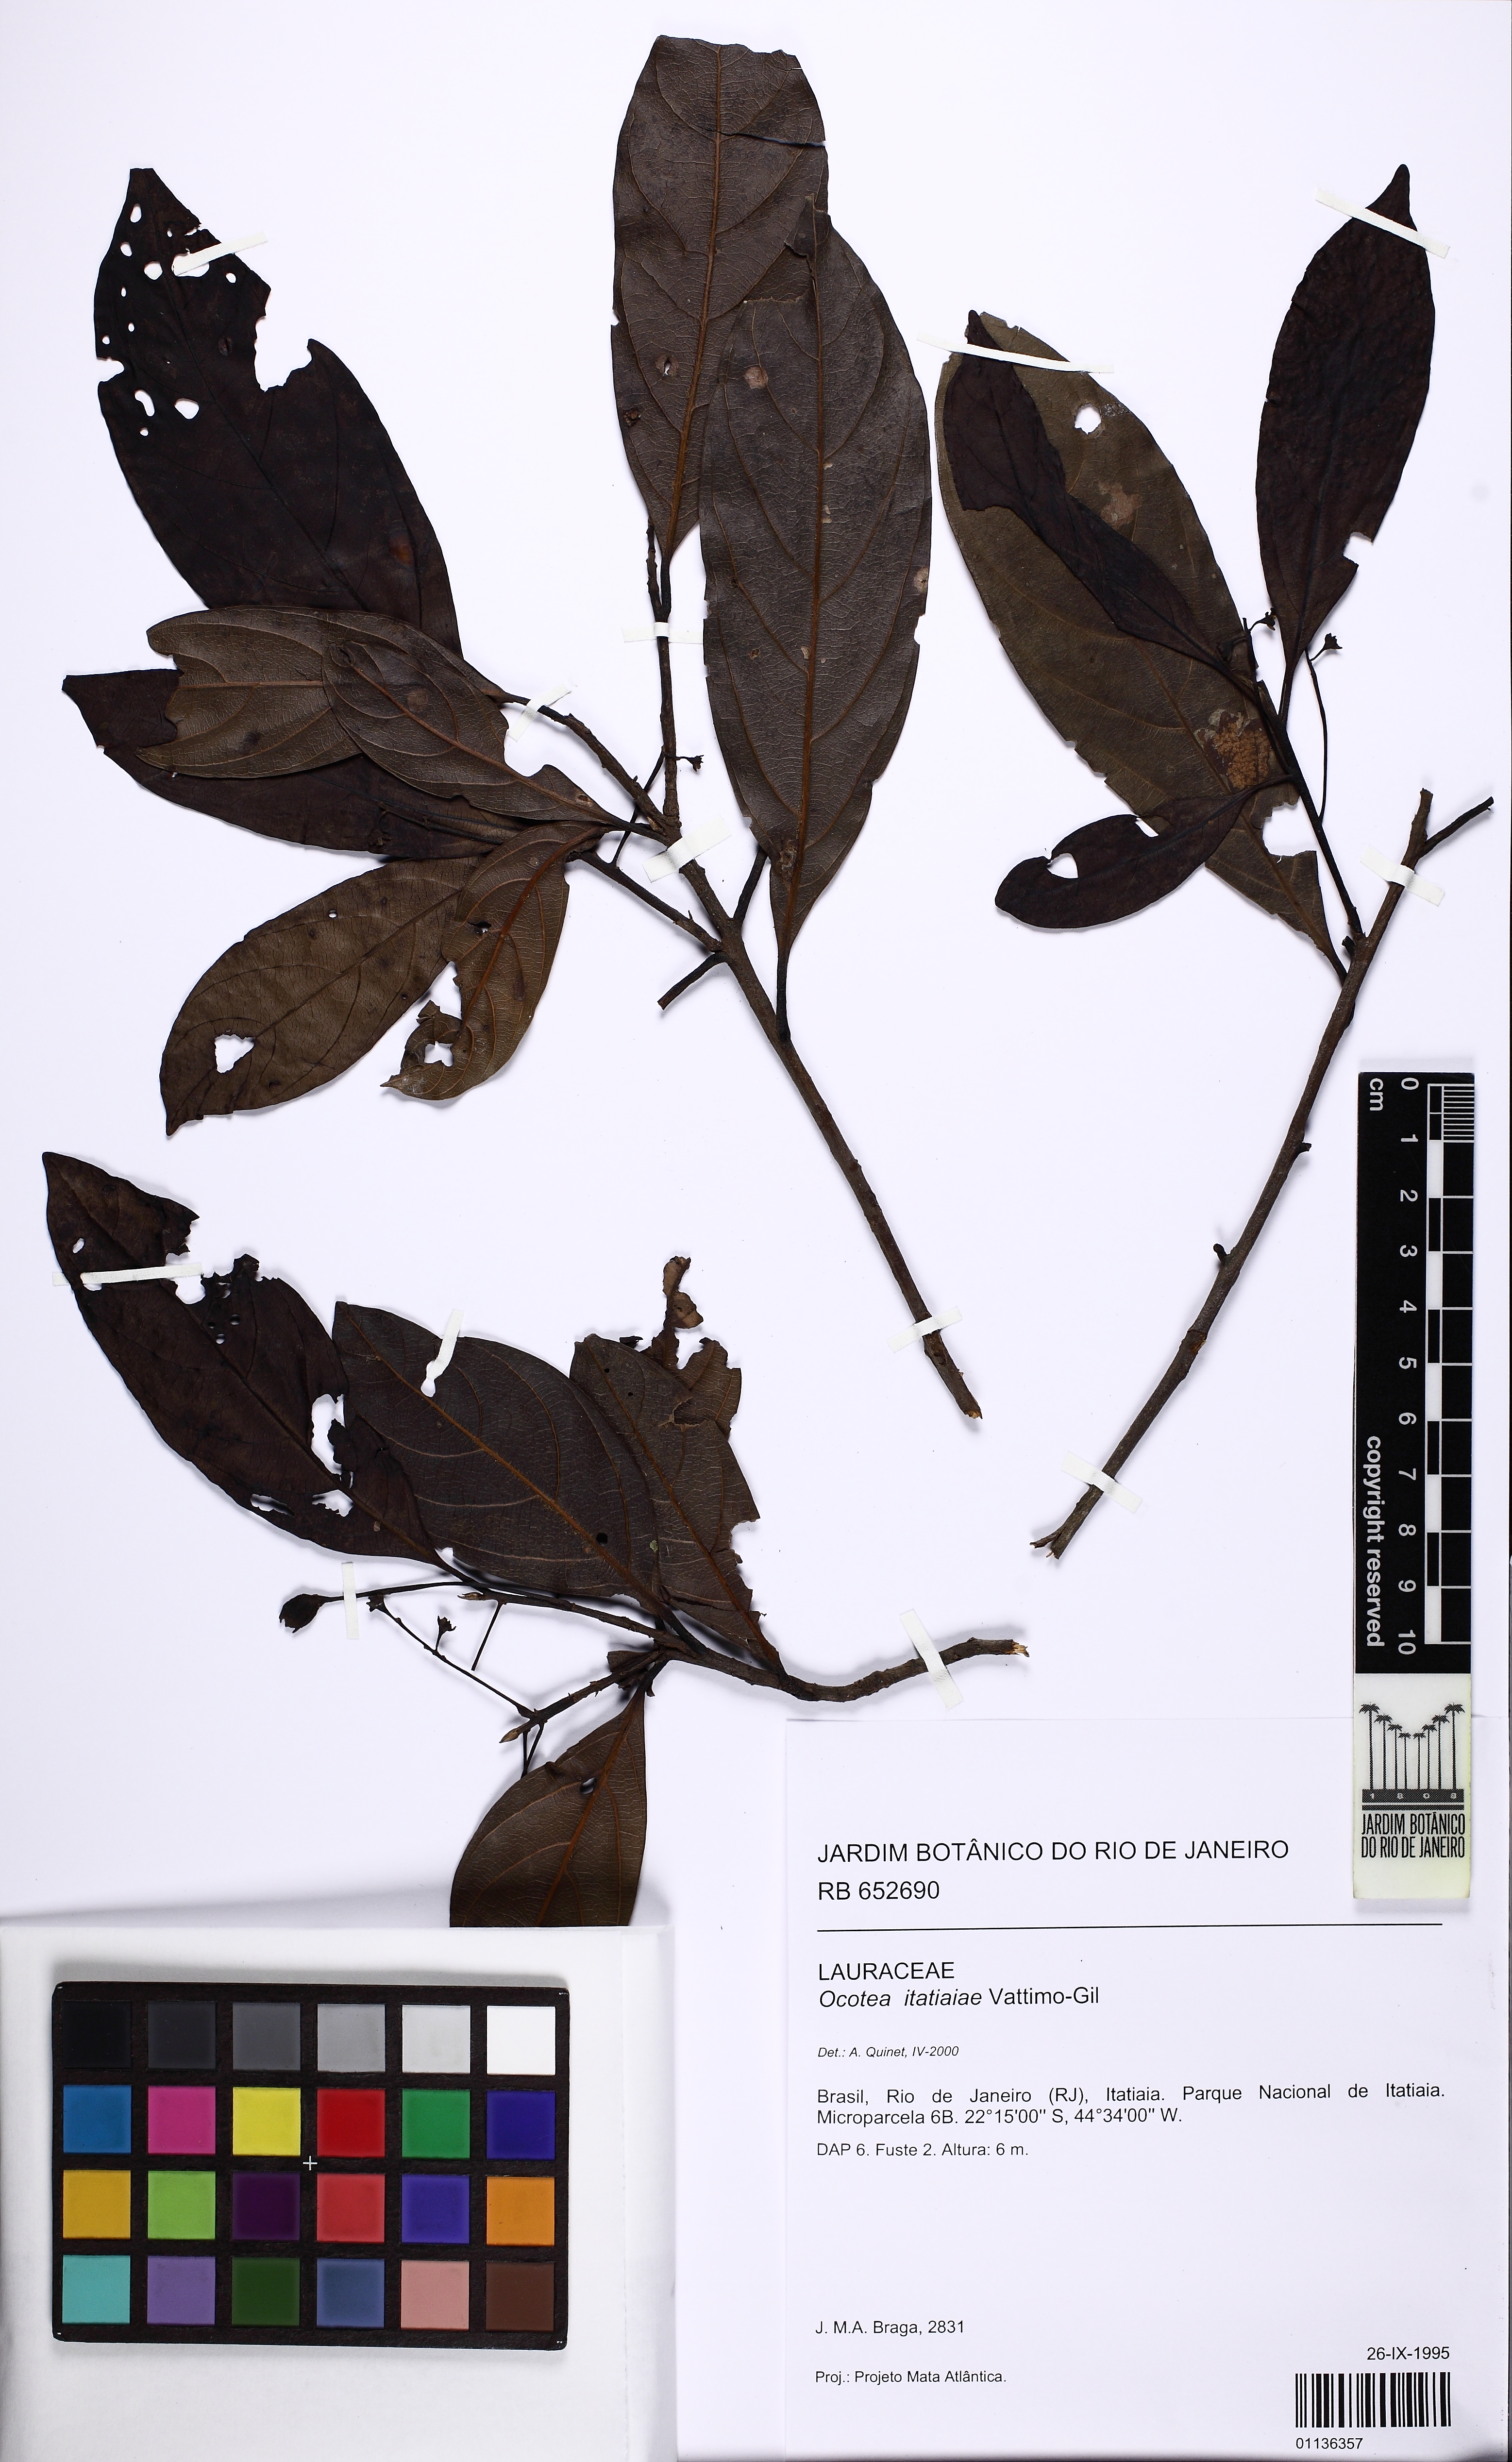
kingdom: Plantae
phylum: Tracheophyta
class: Magnoliopsida
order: Laurales
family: Lauraceae
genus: Ocotea
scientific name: Ocotea itatiaiae
